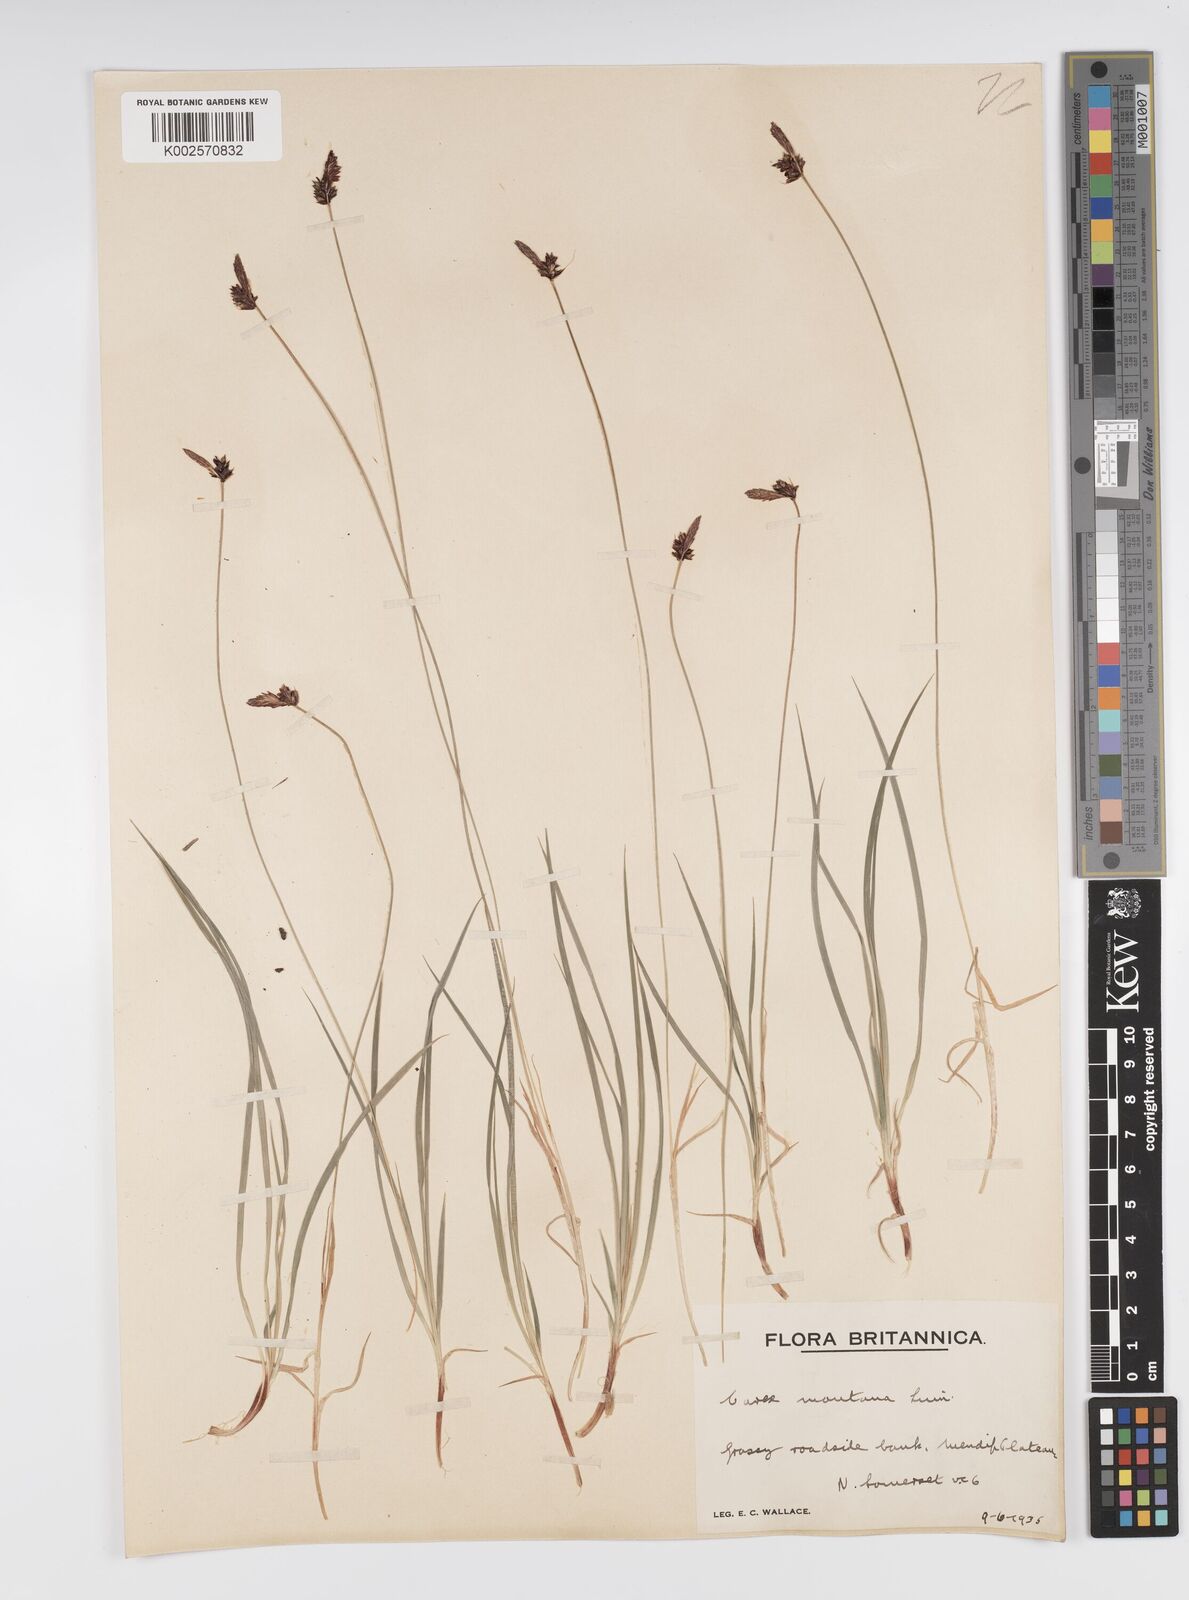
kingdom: Plantae
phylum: Tracheophyta
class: Liliopsida
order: Poales
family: Cyperaceae
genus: Carex
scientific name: Carex montana
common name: Soft-leaved sedge
